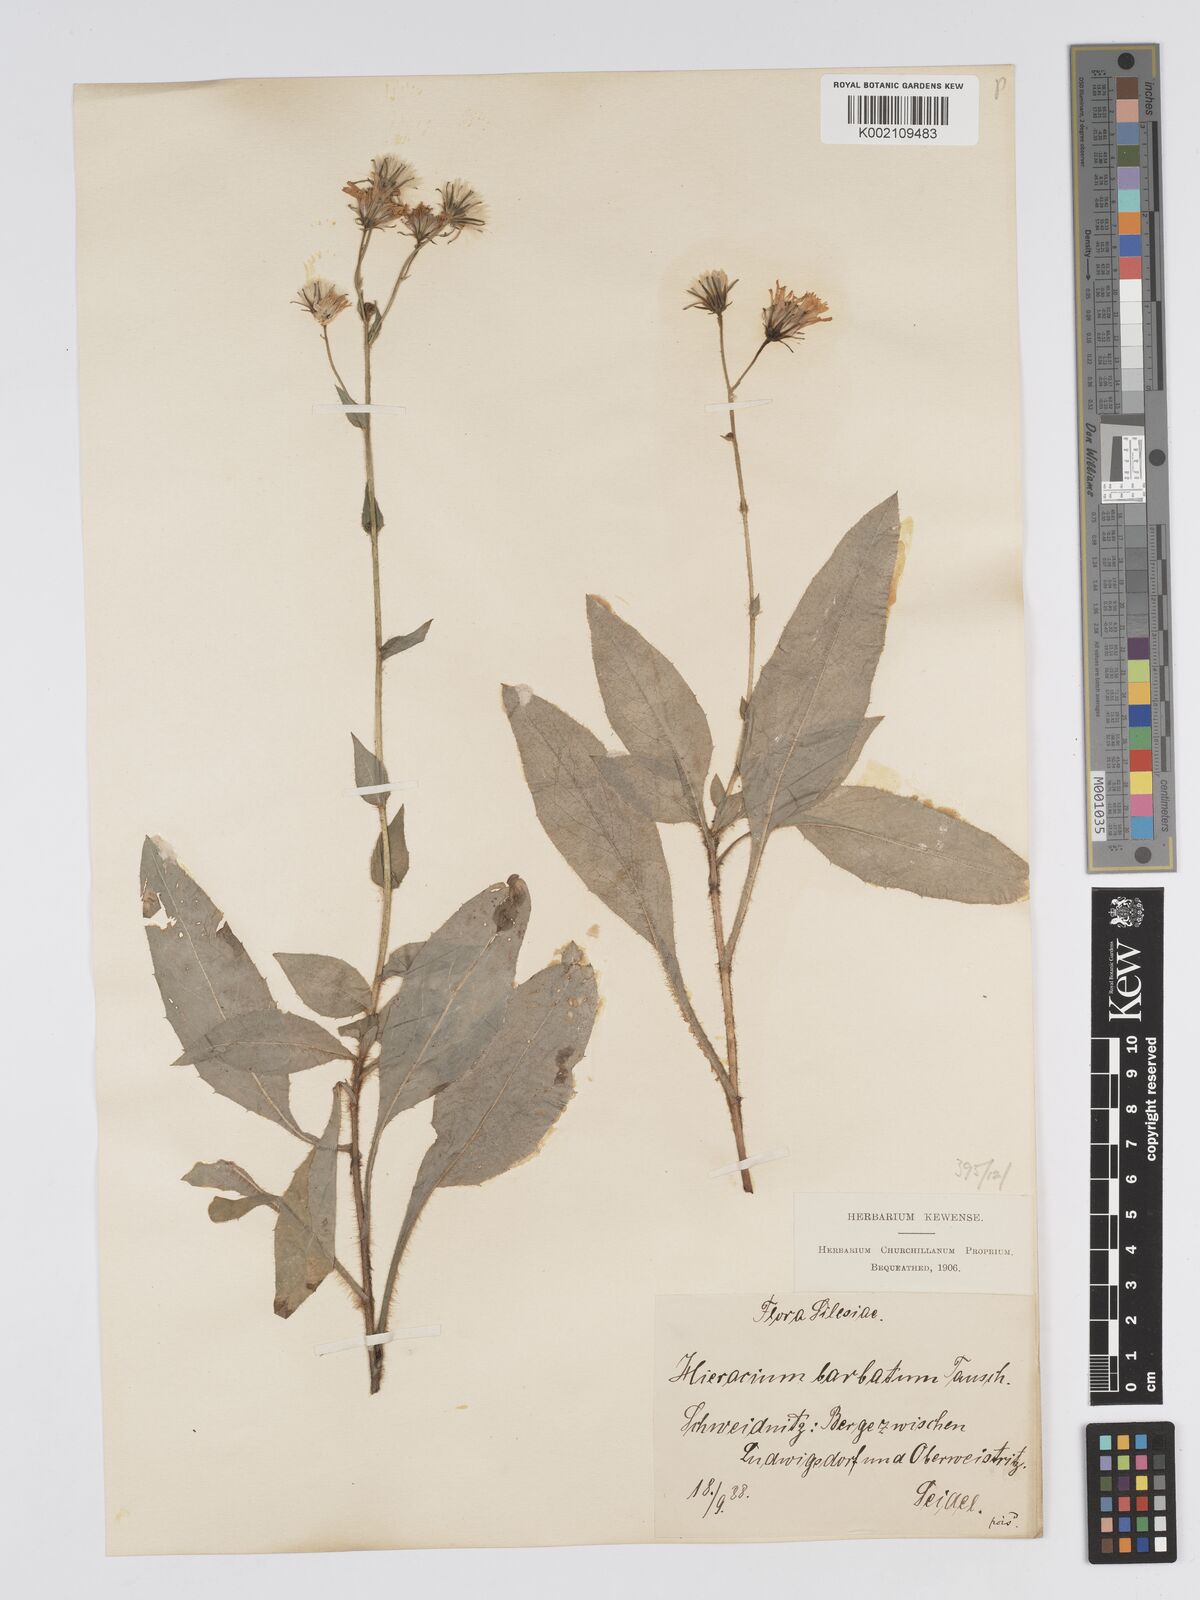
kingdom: Plantae
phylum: Tracheophyta
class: Magnoliopsida
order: Asterales
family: Asteraceae
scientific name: Asteraceae
